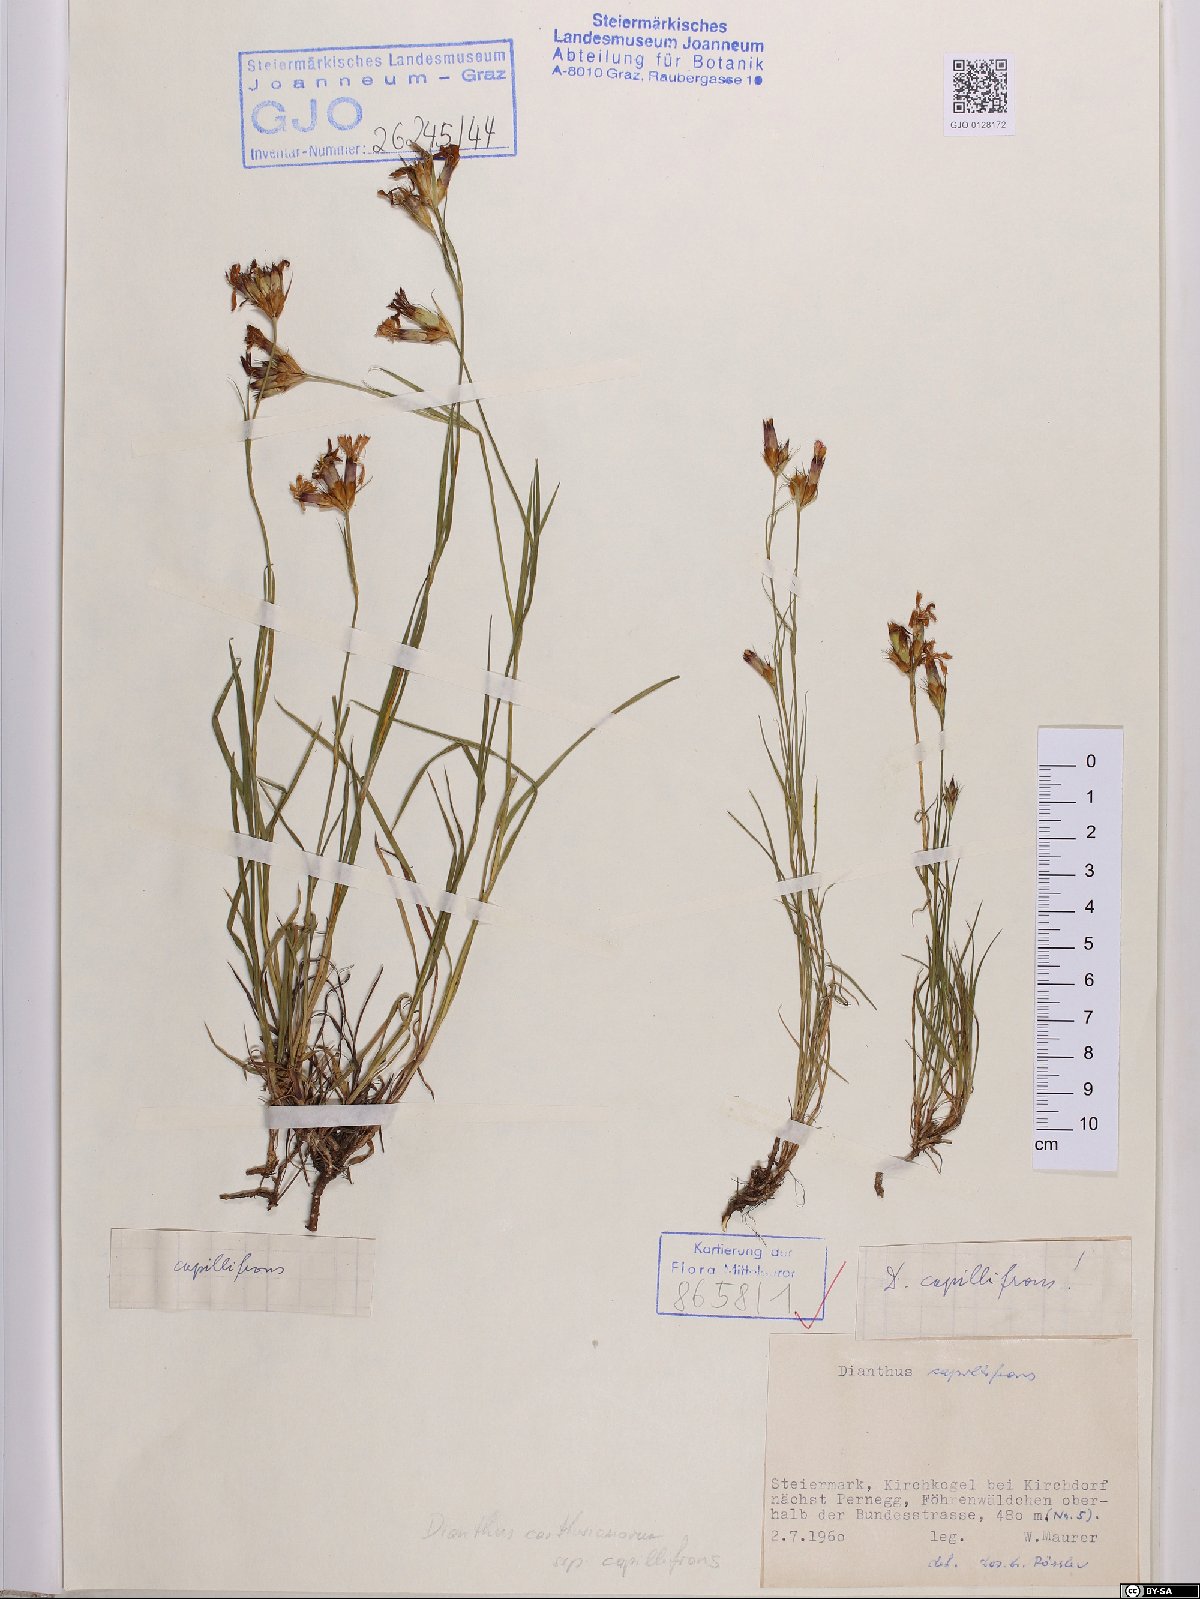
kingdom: Plantae
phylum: Tracheophyta
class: Magnoliopsida
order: Caryophyllales
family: Caryophyllaceae
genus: Dianthus
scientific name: Dianthus carthusianorum
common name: Carthusian pink
